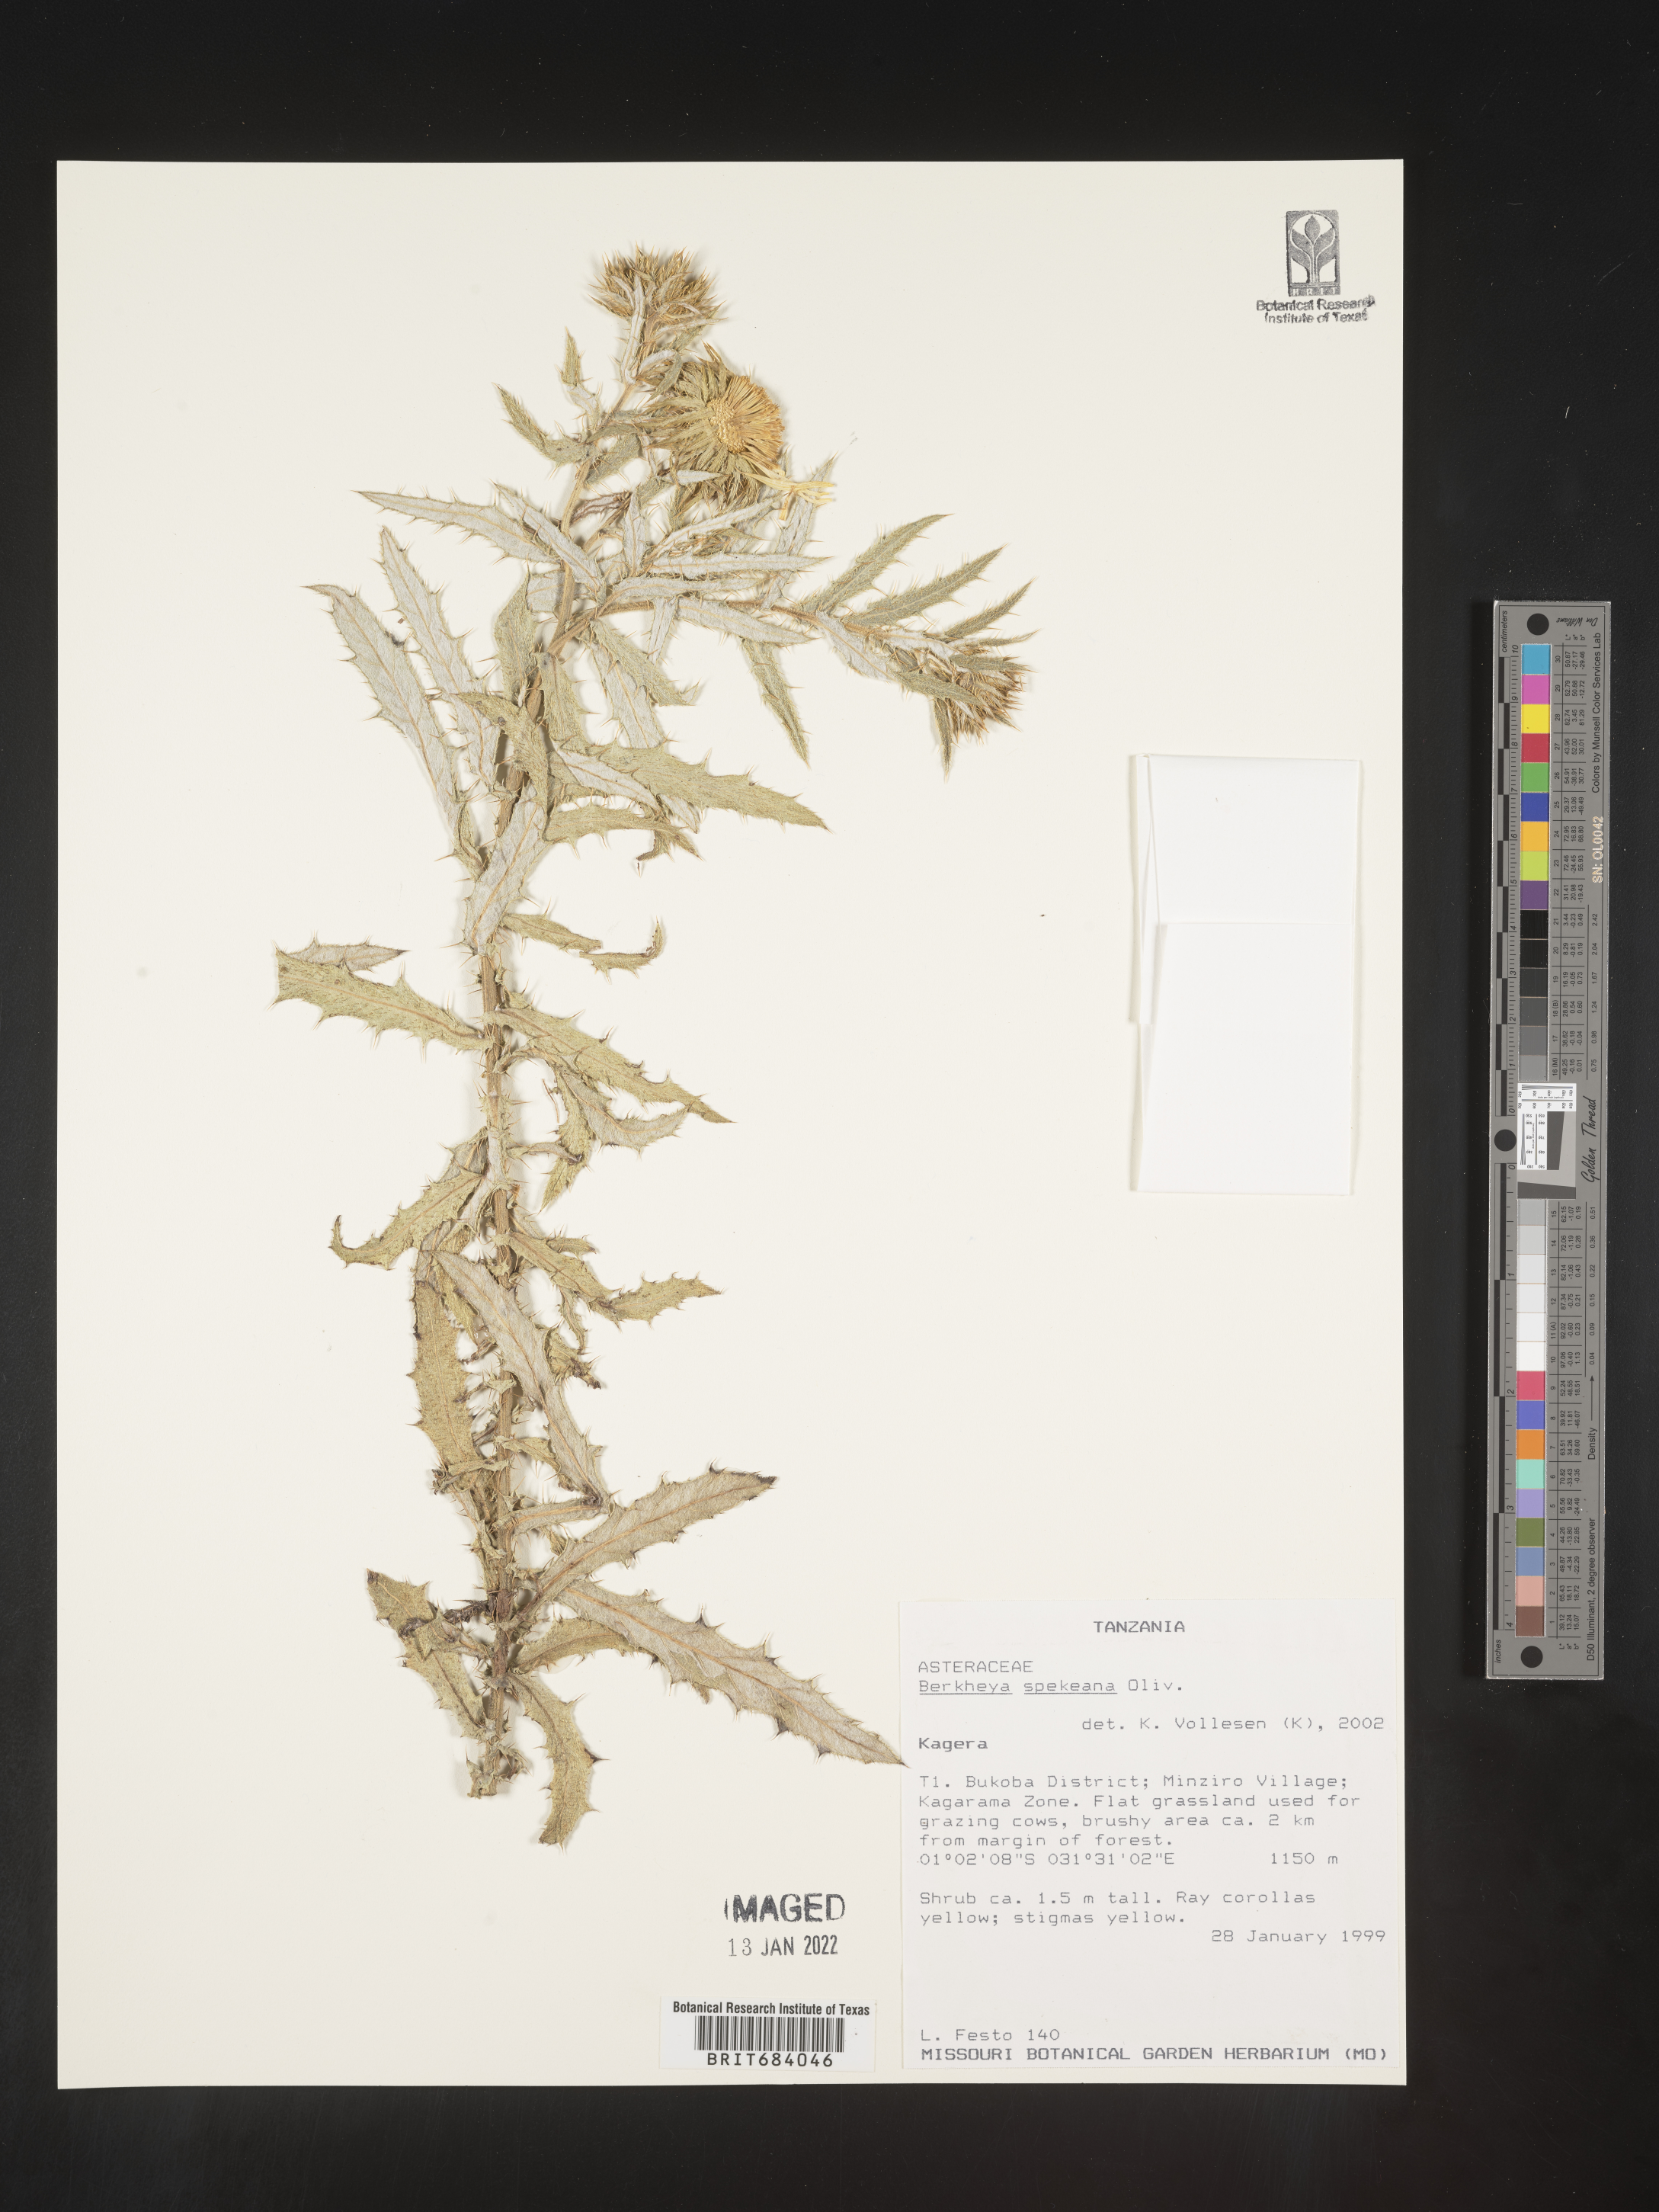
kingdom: Plantae
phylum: Tracheophyta
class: Magnoliopsida
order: Asterales
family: Asteraceae
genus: Berkheya
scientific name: Berkheya
